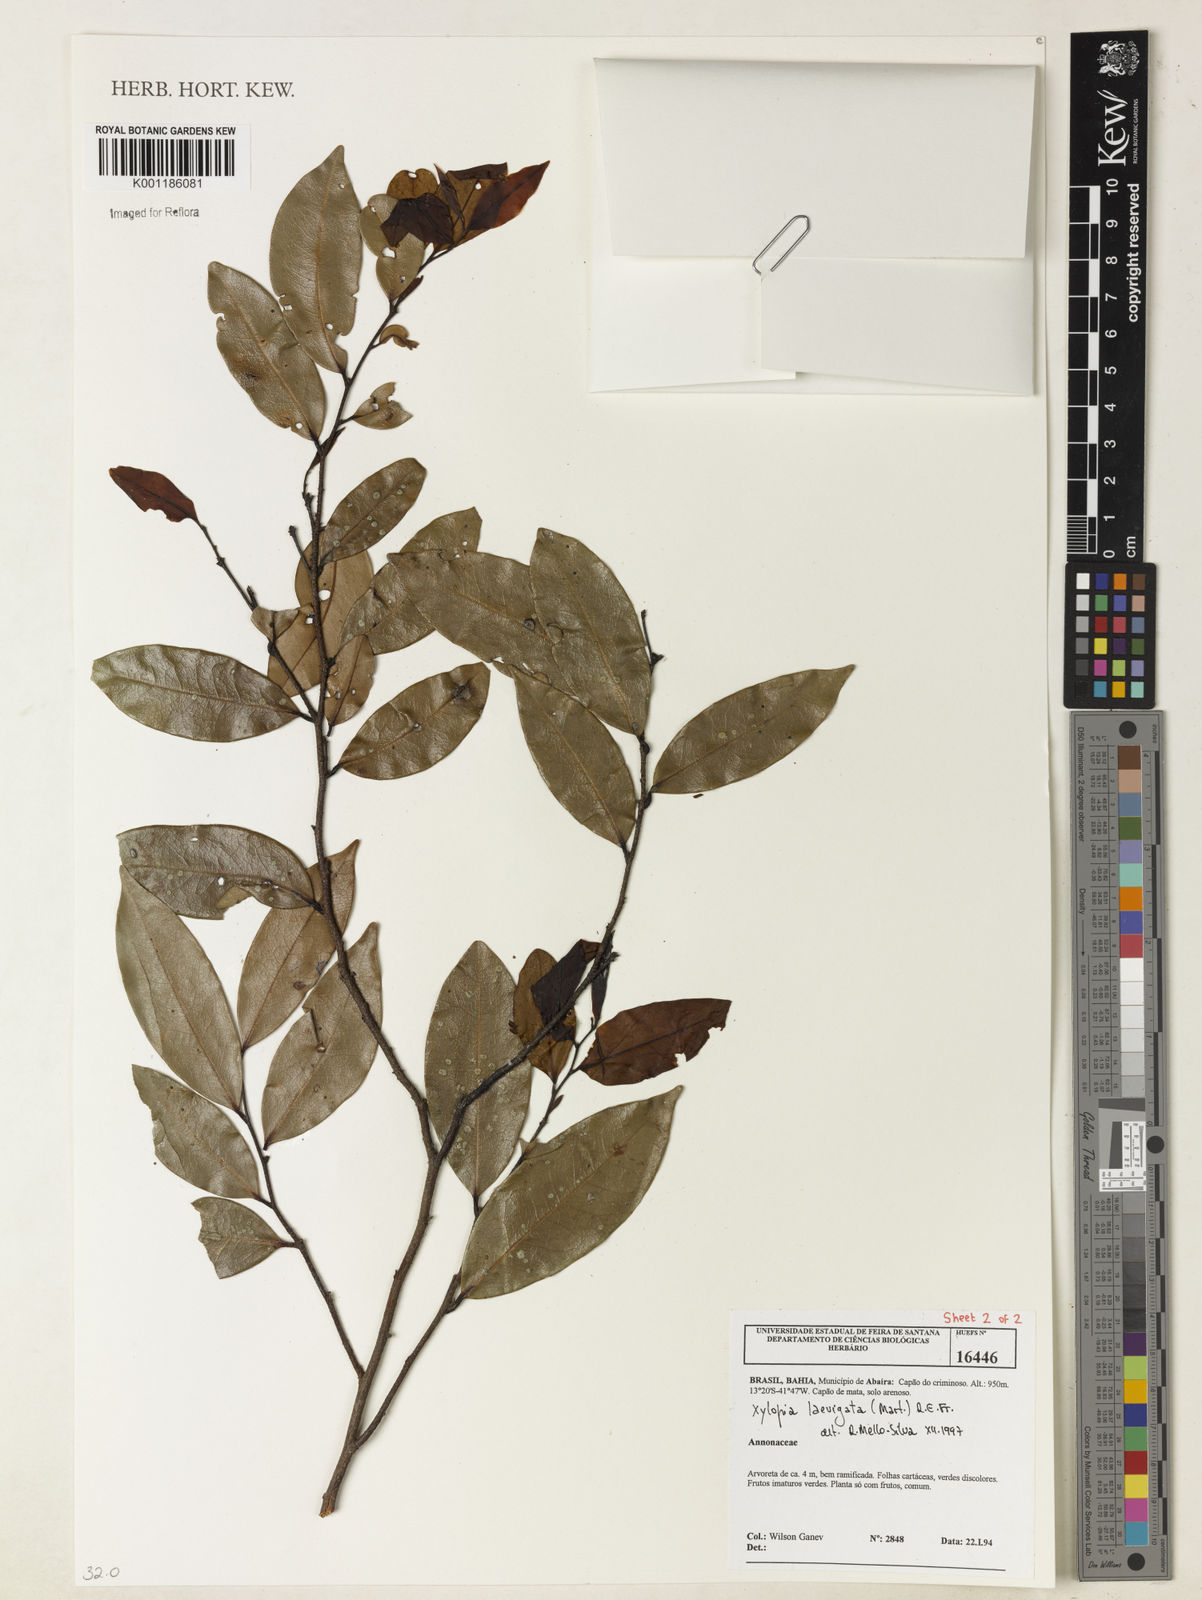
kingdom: Plantae
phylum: Tracheophyta
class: Magnoliopsida
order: Magnoliales
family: Annonaceae
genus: Xylopia
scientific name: Xylopia laevigata
